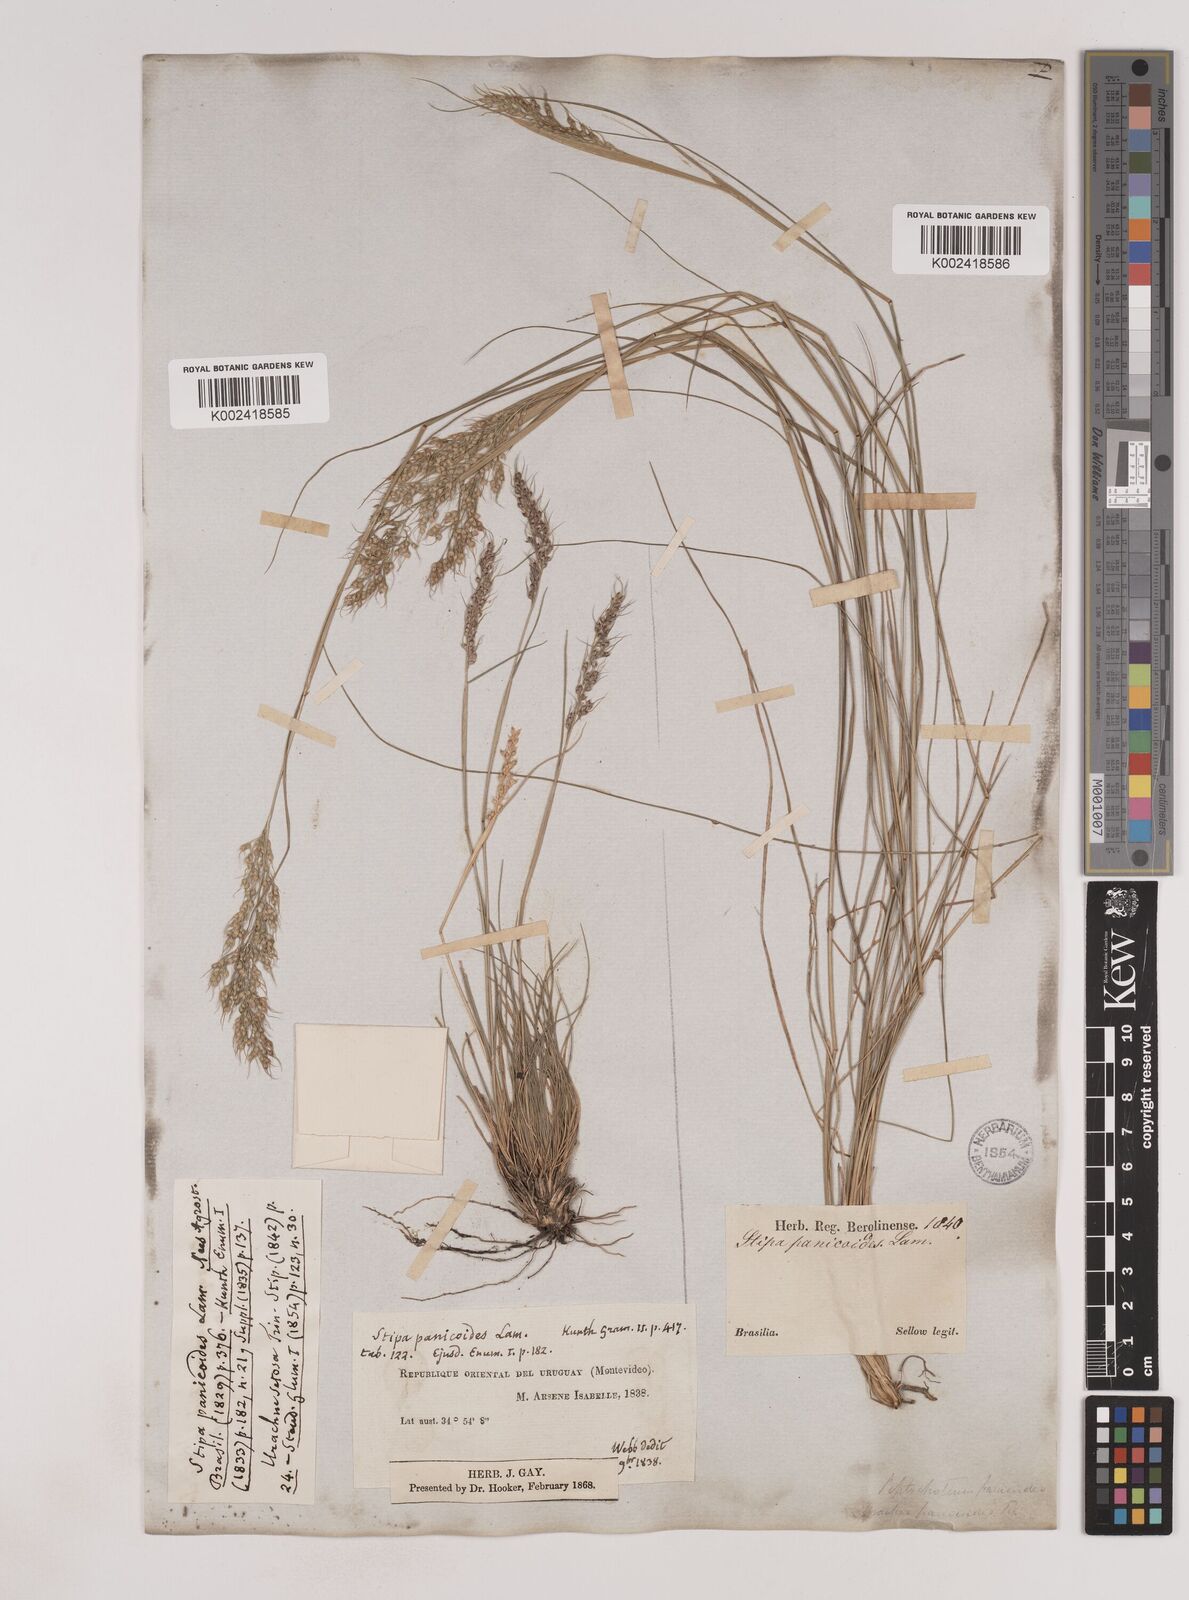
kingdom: Plantae
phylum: Tracheophyta
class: Liliopsida
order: Poales
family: Poaceae
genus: Piptochaetium
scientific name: Piptochaetium montevidense
